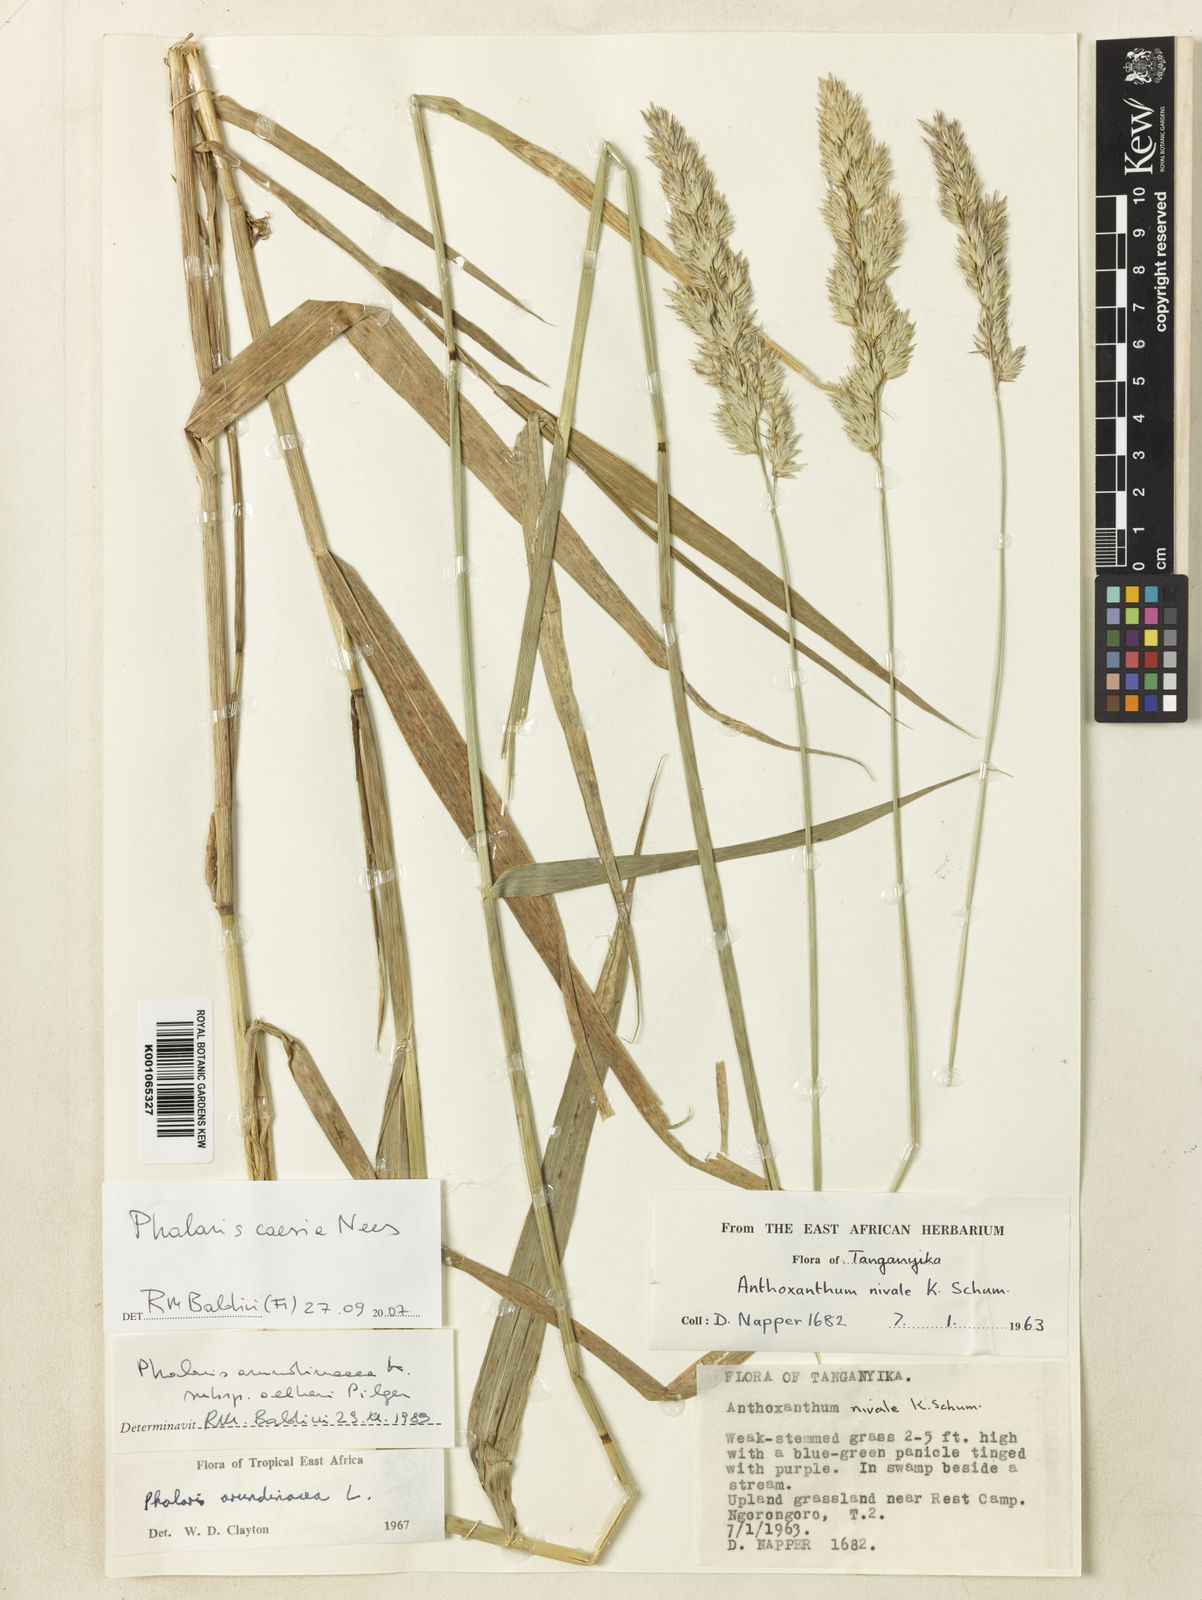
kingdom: Plantae
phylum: Tracheophyta
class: Liliopsida
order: Poales
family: Poaceae
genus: Phalaris
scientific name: Phalaris arundinacea
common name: Reed canary-grass
